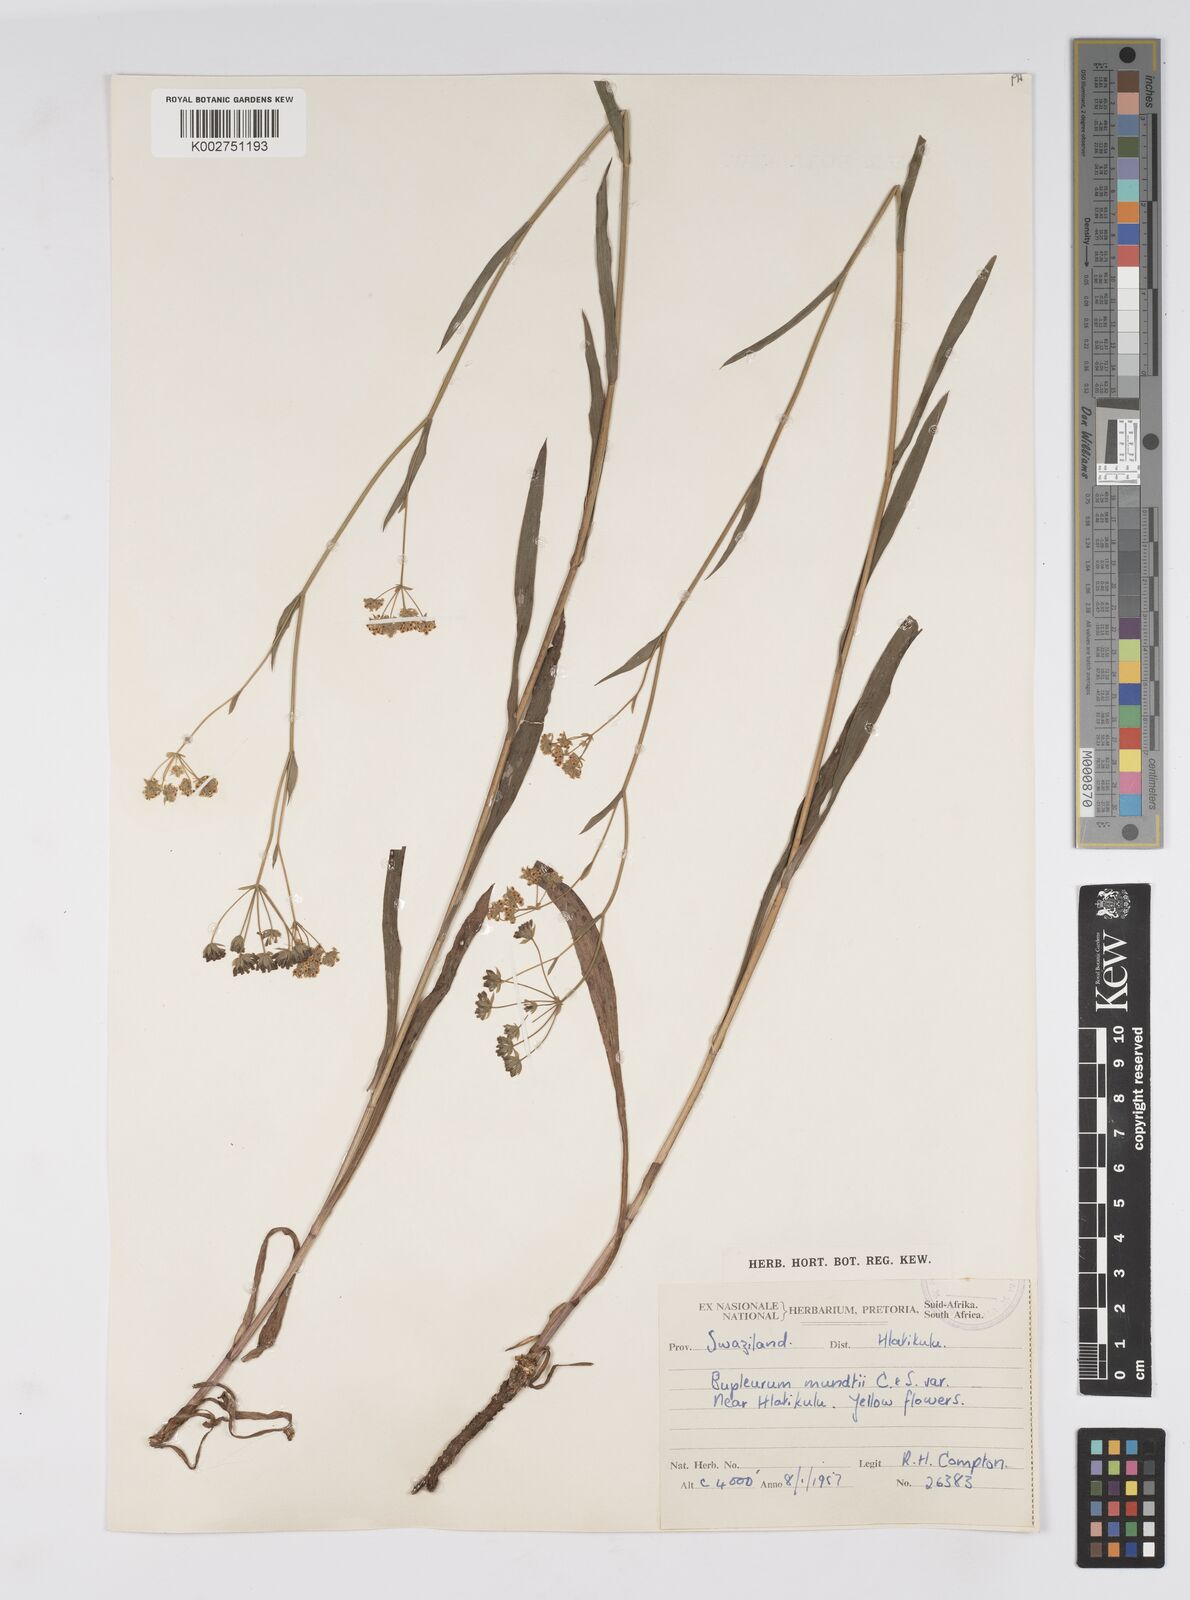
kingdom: Plantae
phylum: Tracheophyta
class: Magnoliopsida
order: Apiales
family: Apiaceae
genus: Bupleurum
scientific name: Bupleurum mundii
